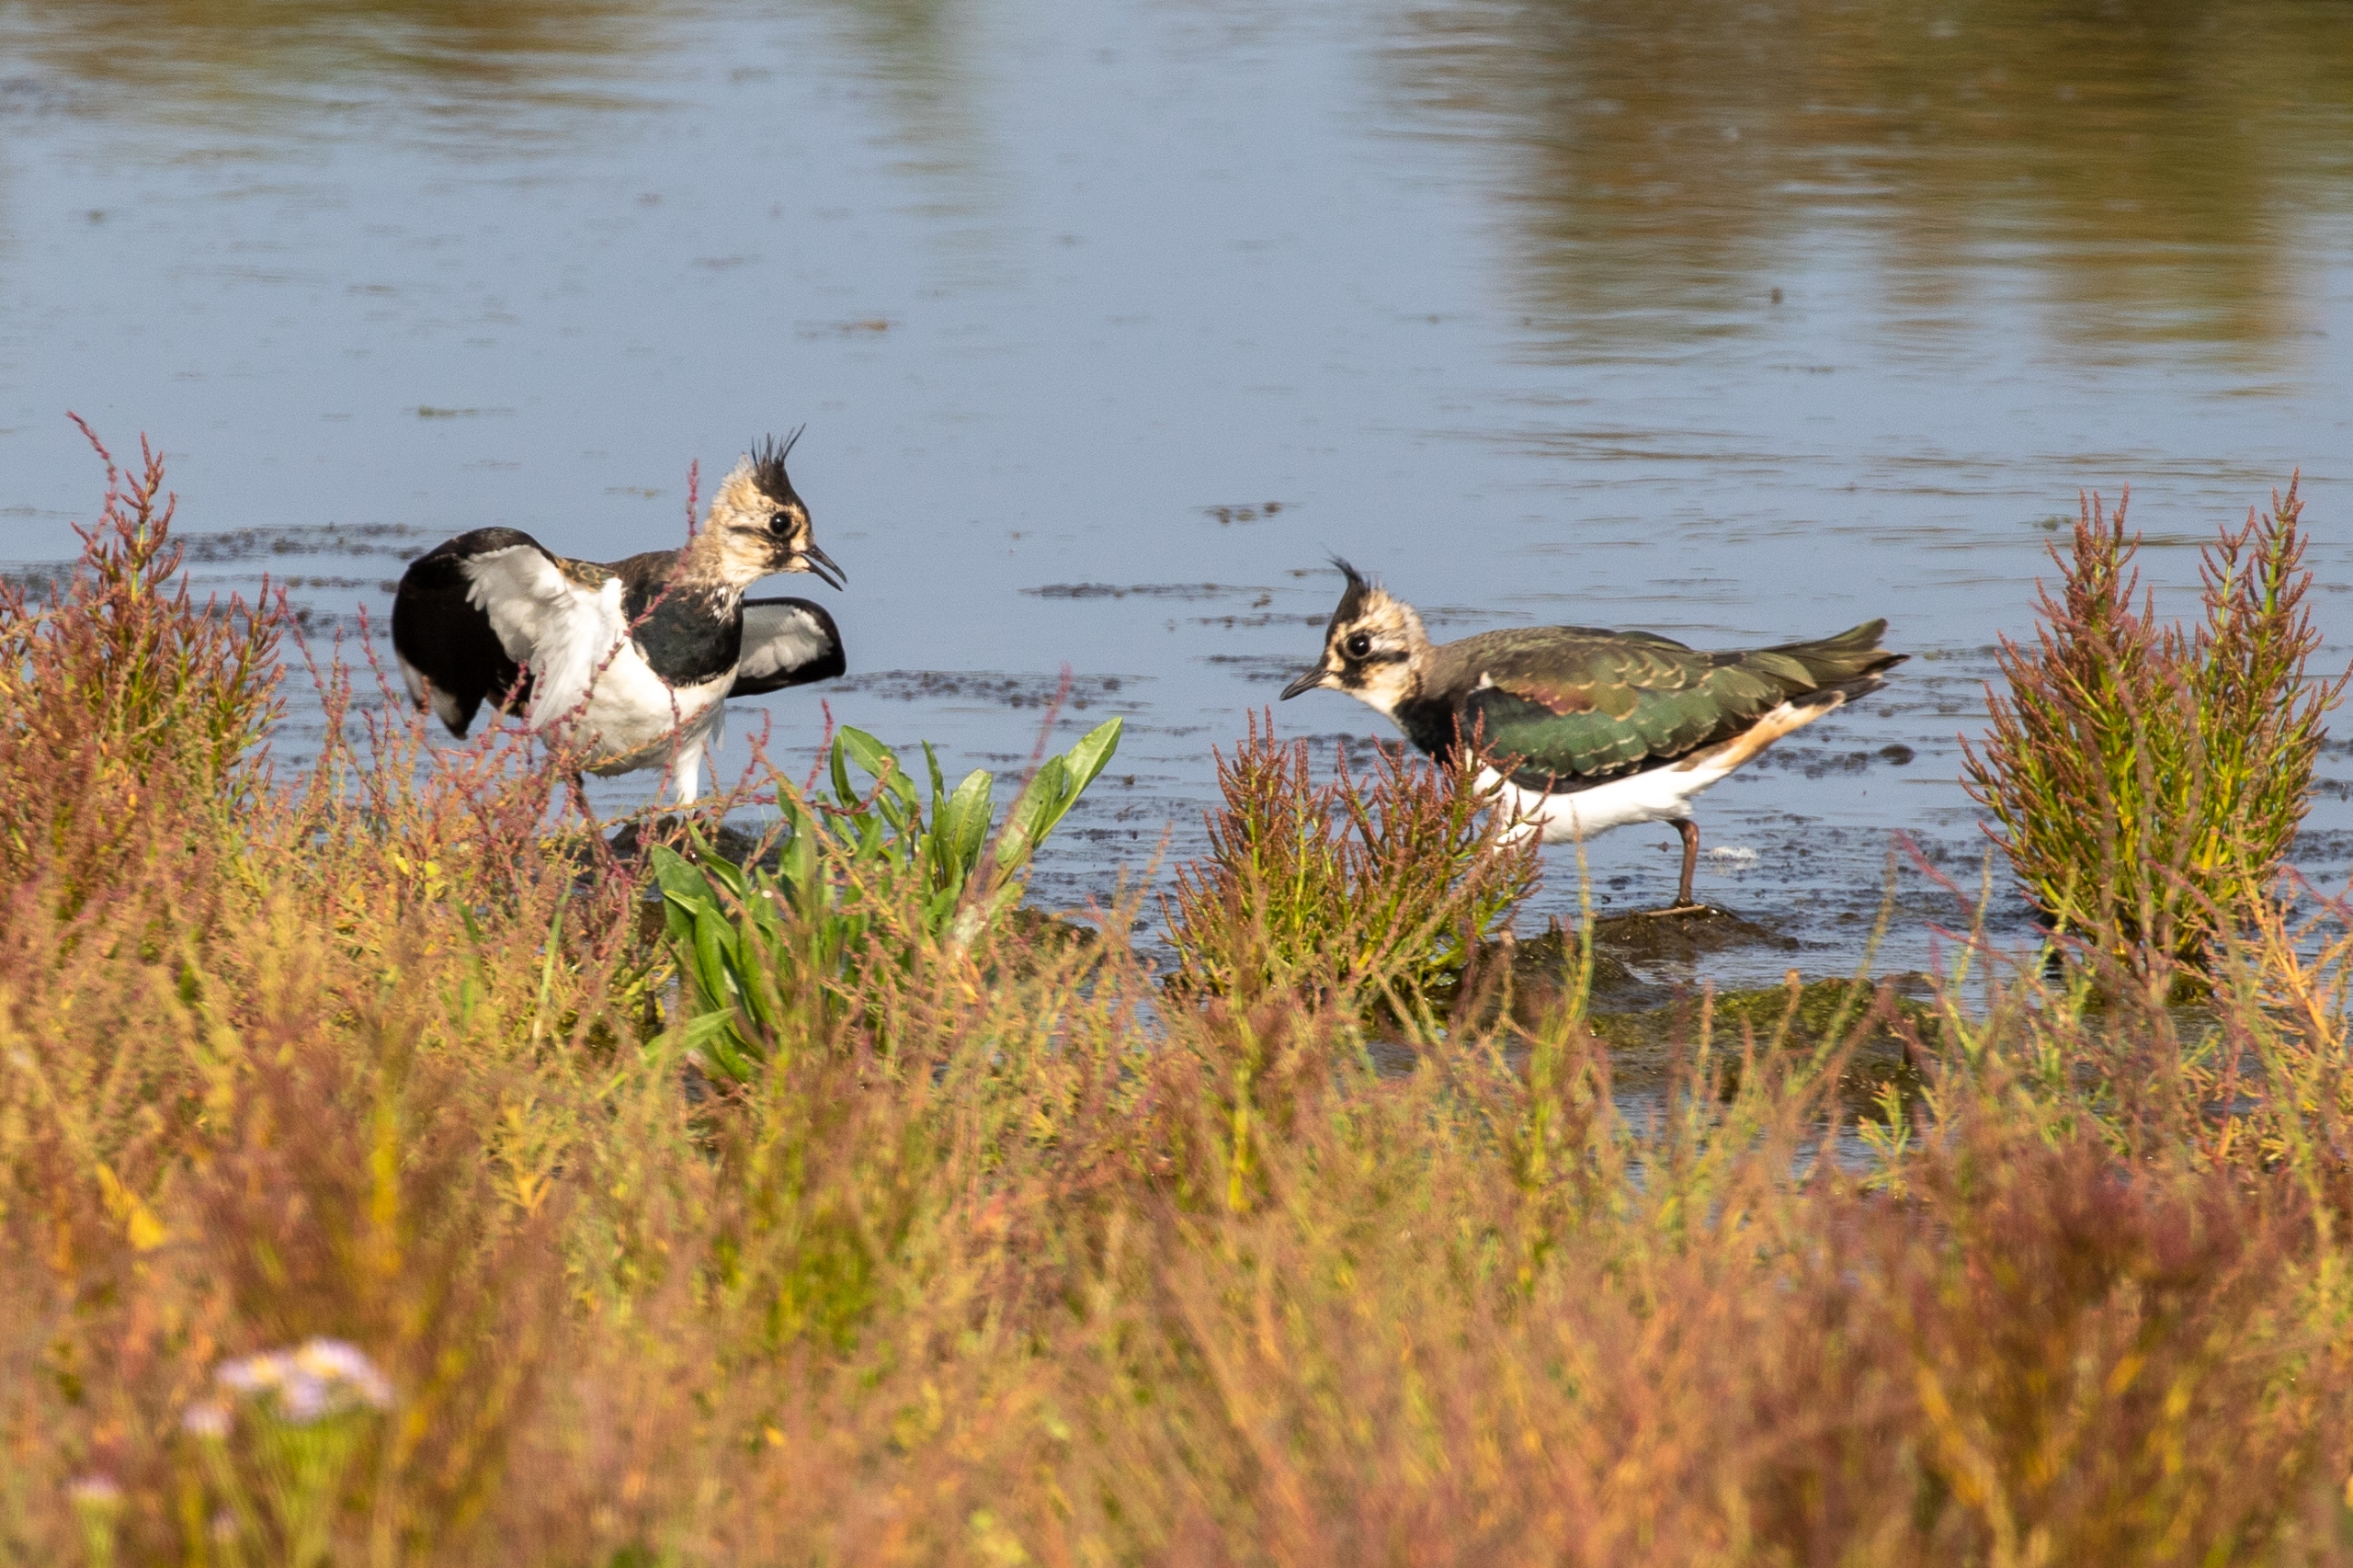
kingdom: Animalia
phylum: Chordata
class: Aves
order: Charadriiformes
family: Charadriidae
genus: Vanellus
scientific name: Vanellus vanellus
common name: Vibe
